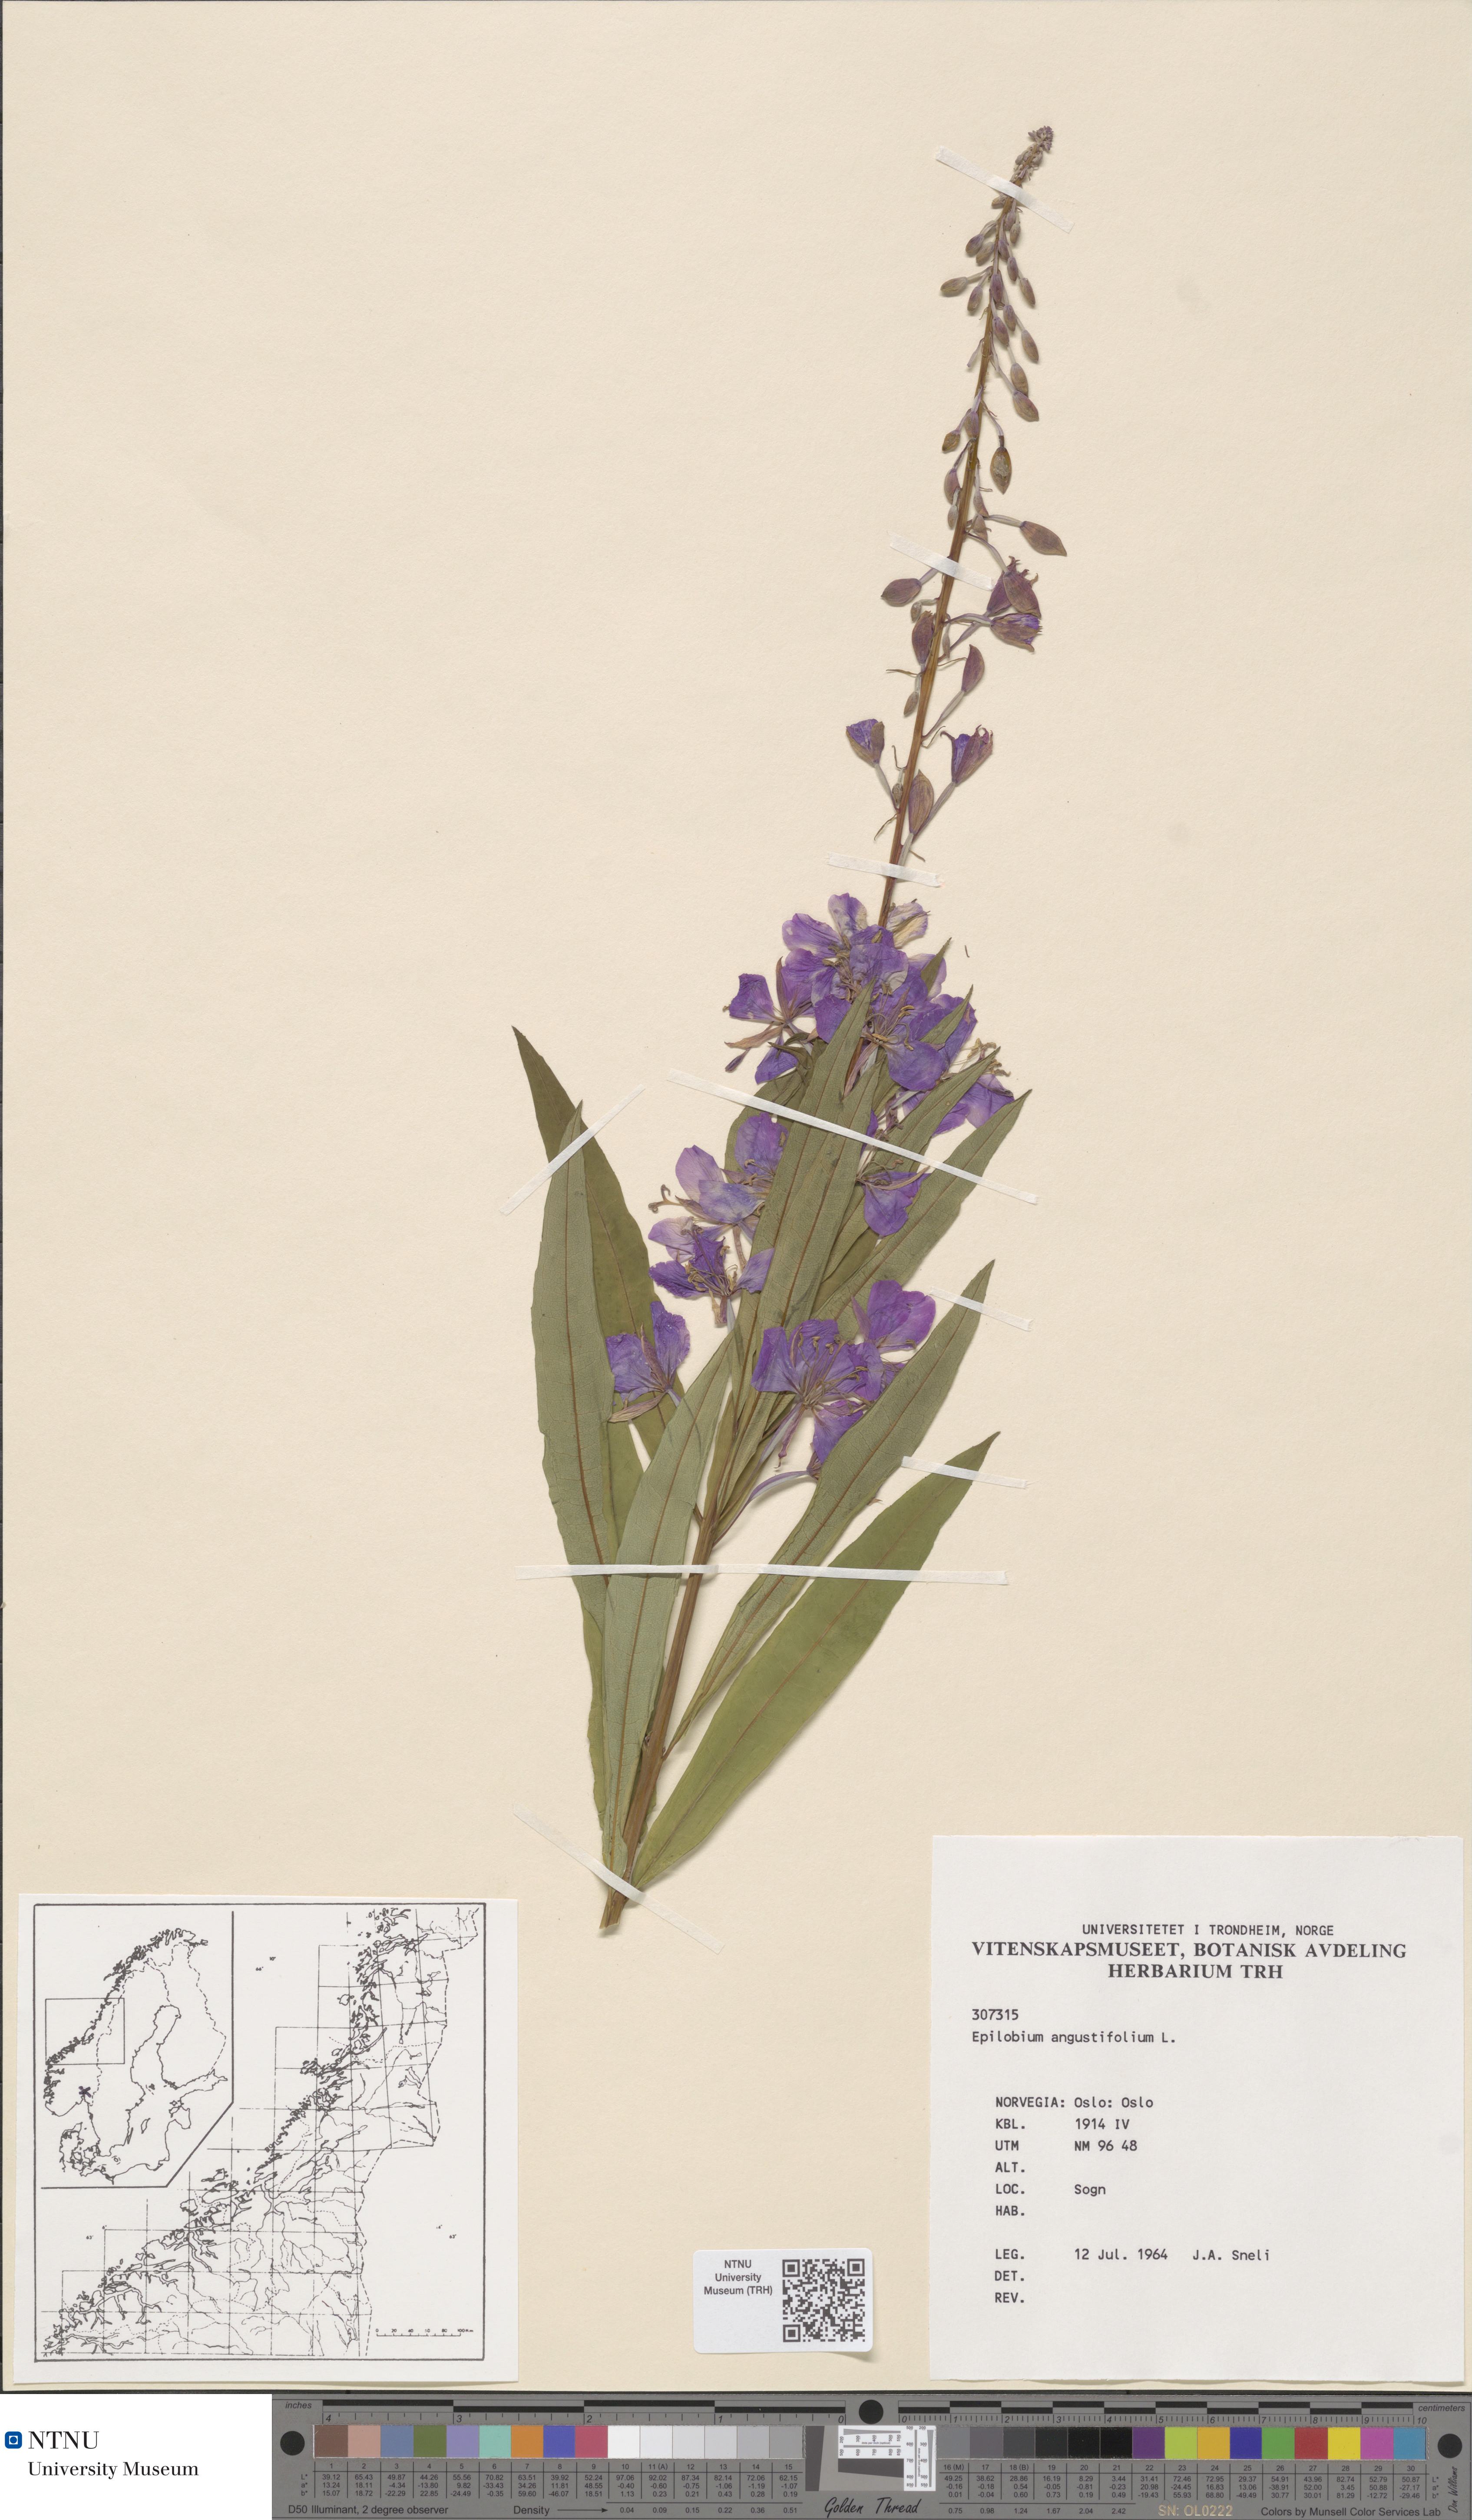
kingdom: Plantae
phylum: Tracheophyta
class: Magnoliopsida
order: Myrtales
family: Onagraceae
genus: Chamaenerion
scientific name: Chamaenerion angustifolium
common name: Fireweed
